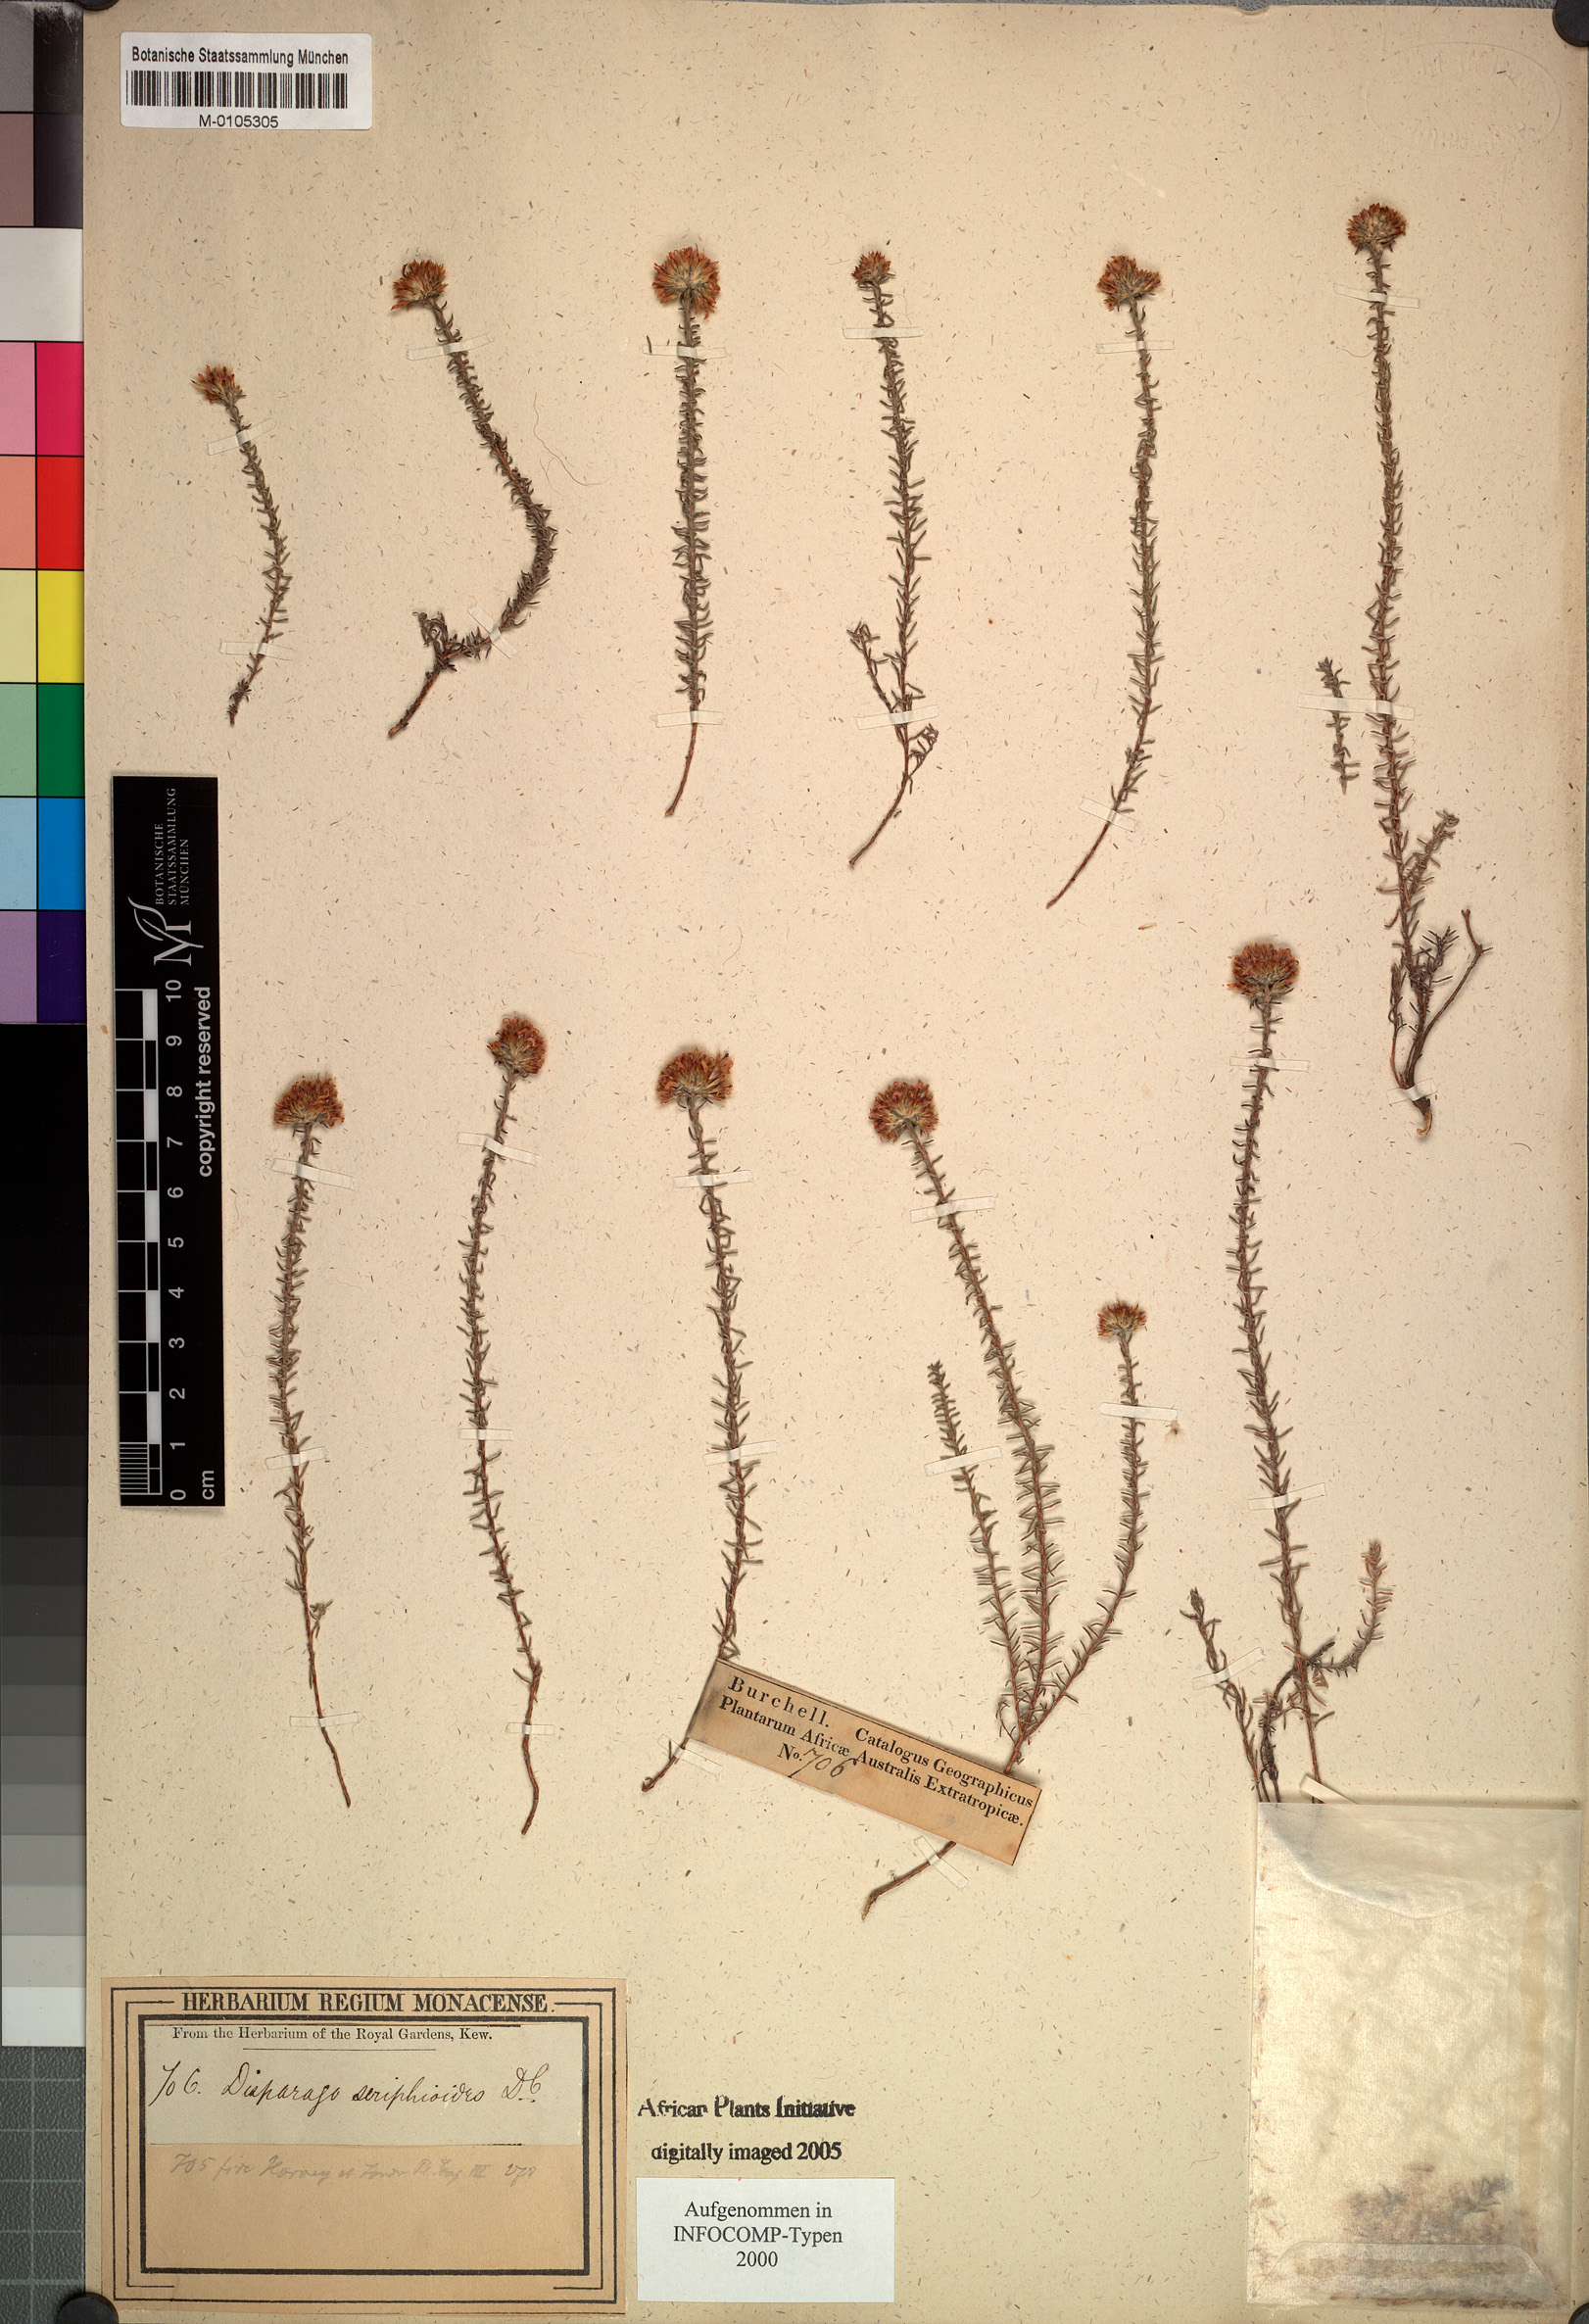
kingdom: Plantae
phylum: Tracheophyta
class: Magnoliopsida
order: Asterales
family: Asteraceae
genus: Disparago
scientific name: Disparago ericoides
